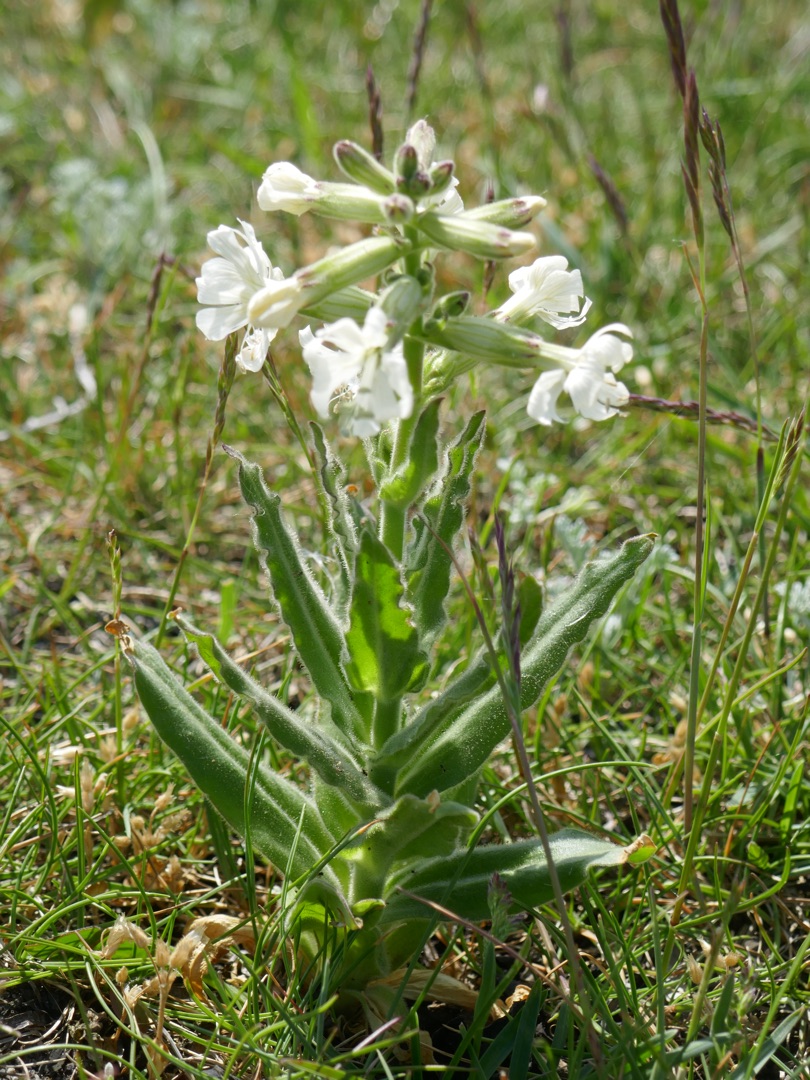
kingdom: Plantae
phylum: Tracheophyta
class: Magnoliopsida
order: Caryophyllales
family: Caryophyllaceae
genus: Silene
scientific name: Silene viscosa
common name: Klæbrig limurt
